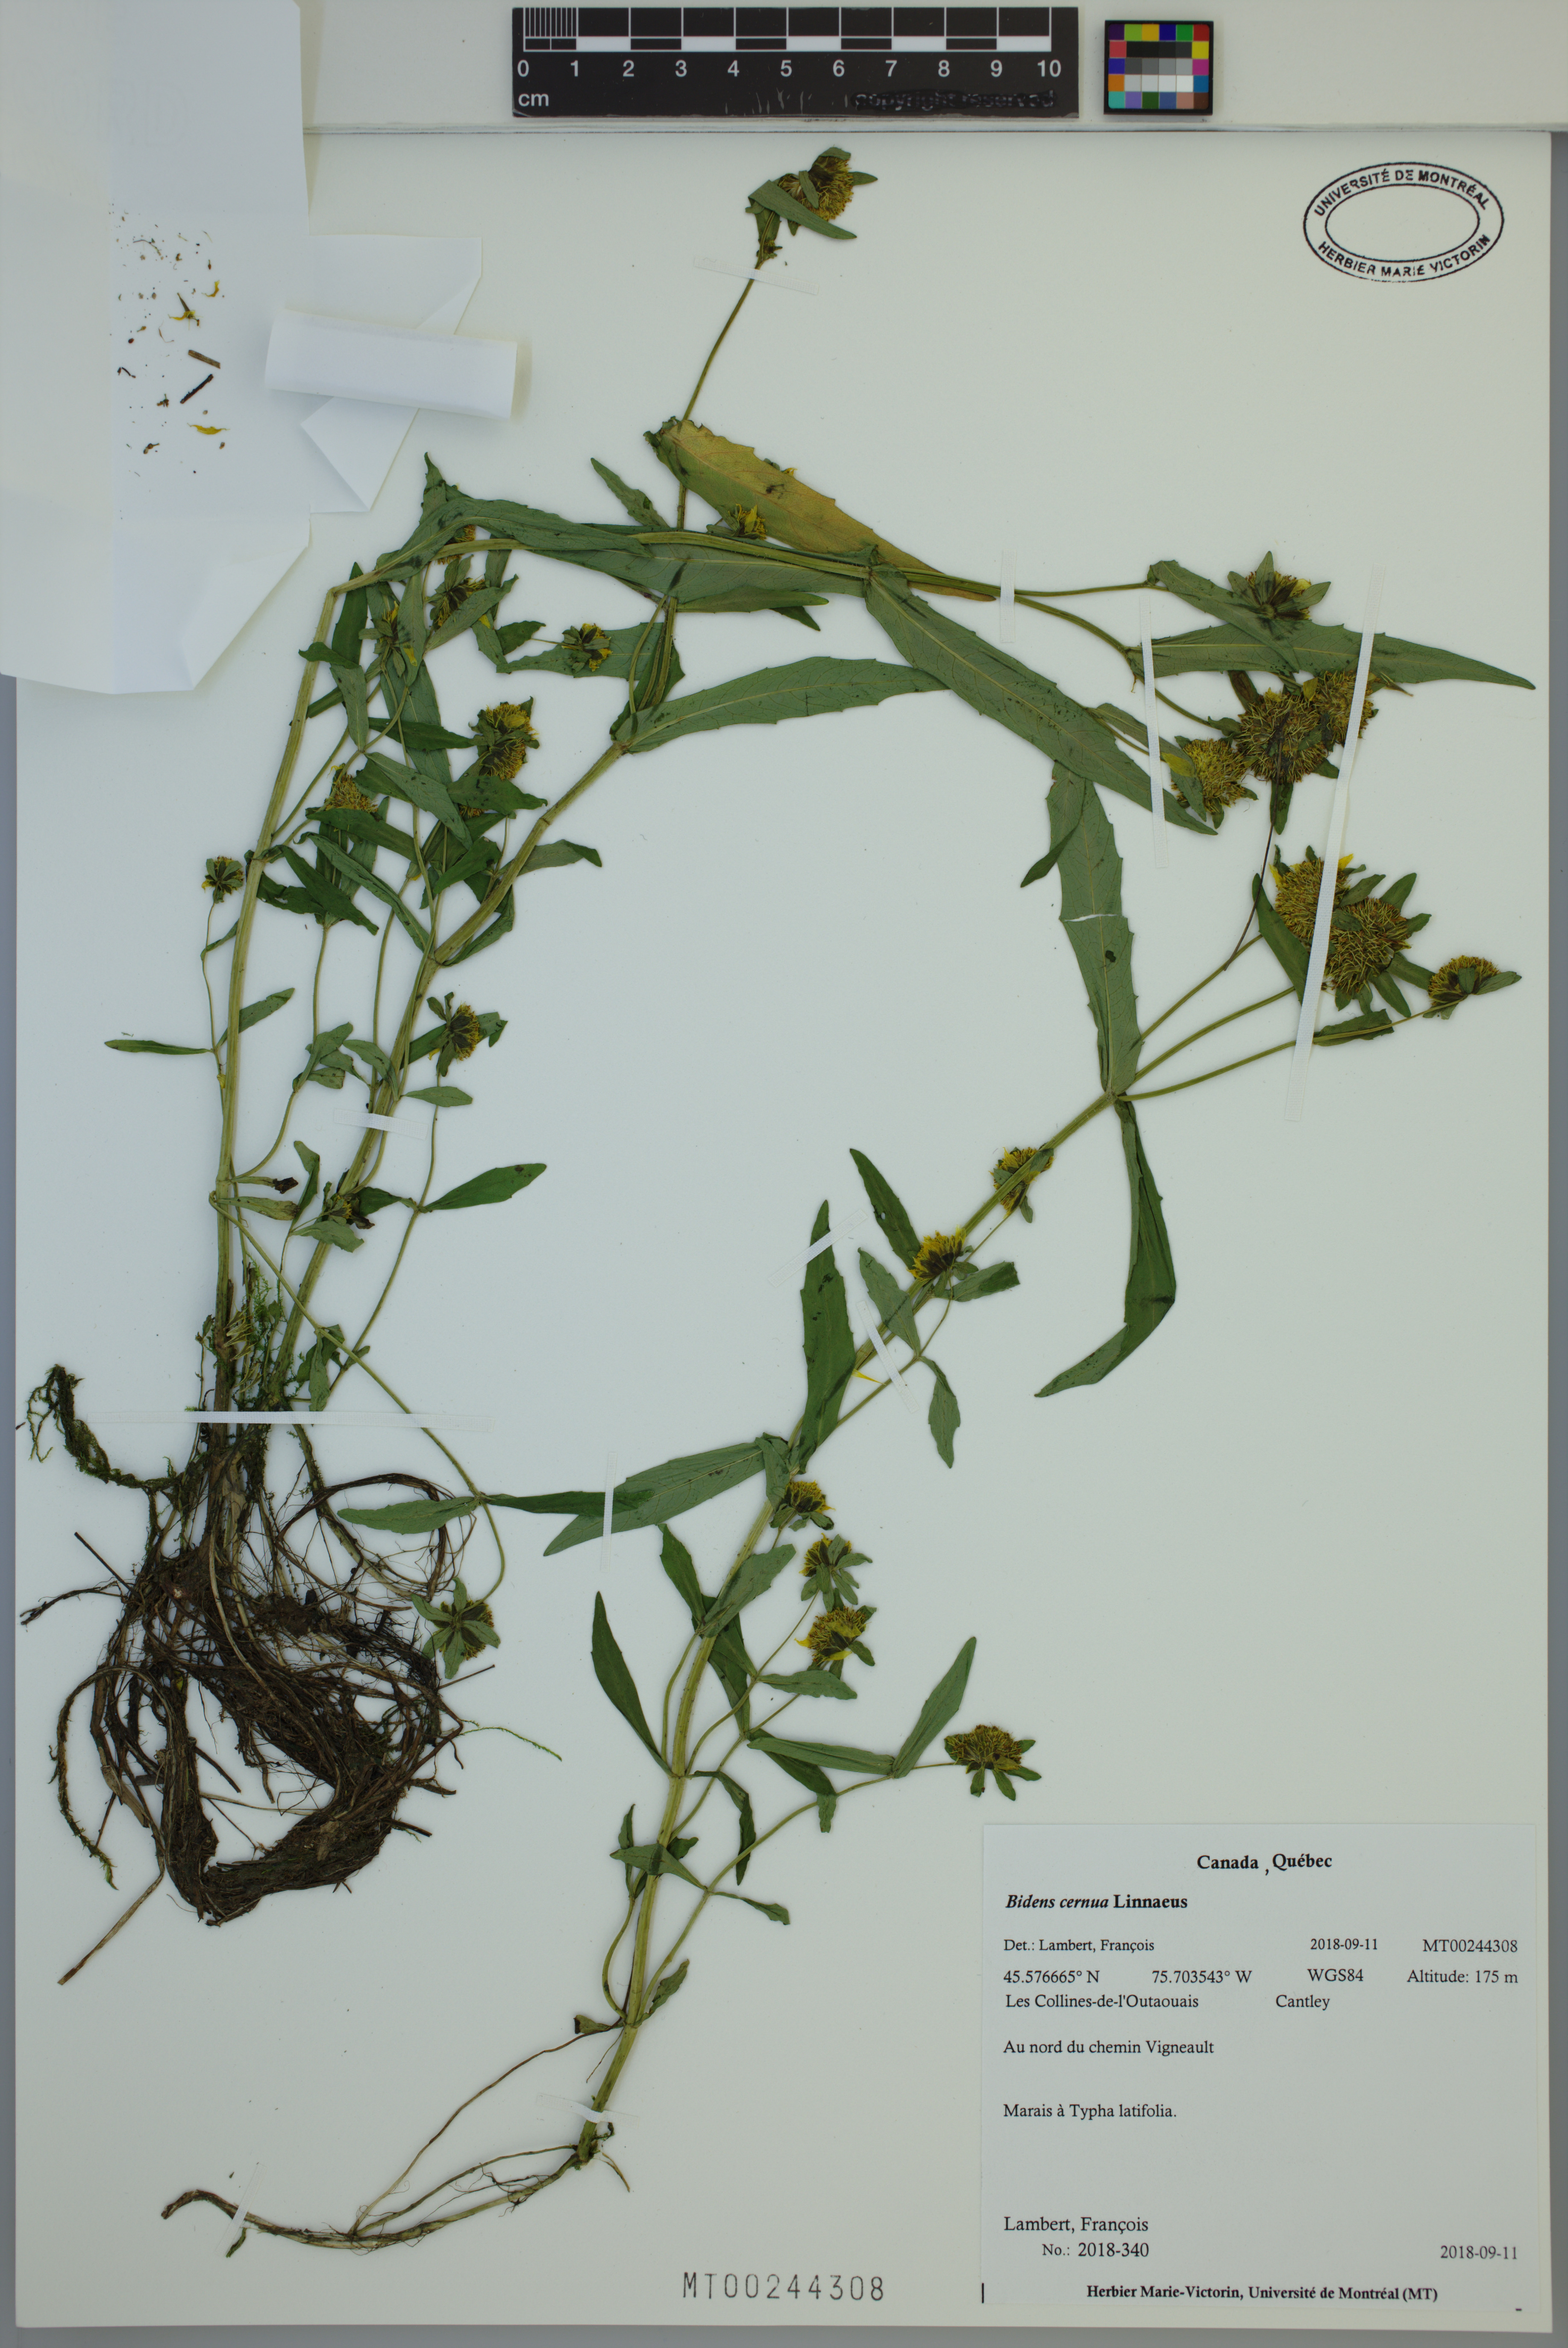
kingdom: Plantae
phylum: Tracheophyta
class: Magnoliopsida
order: Asterales
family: Asteraceae
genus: Bidens
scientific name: Bidens cernua
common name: Nodding bur-marigold
